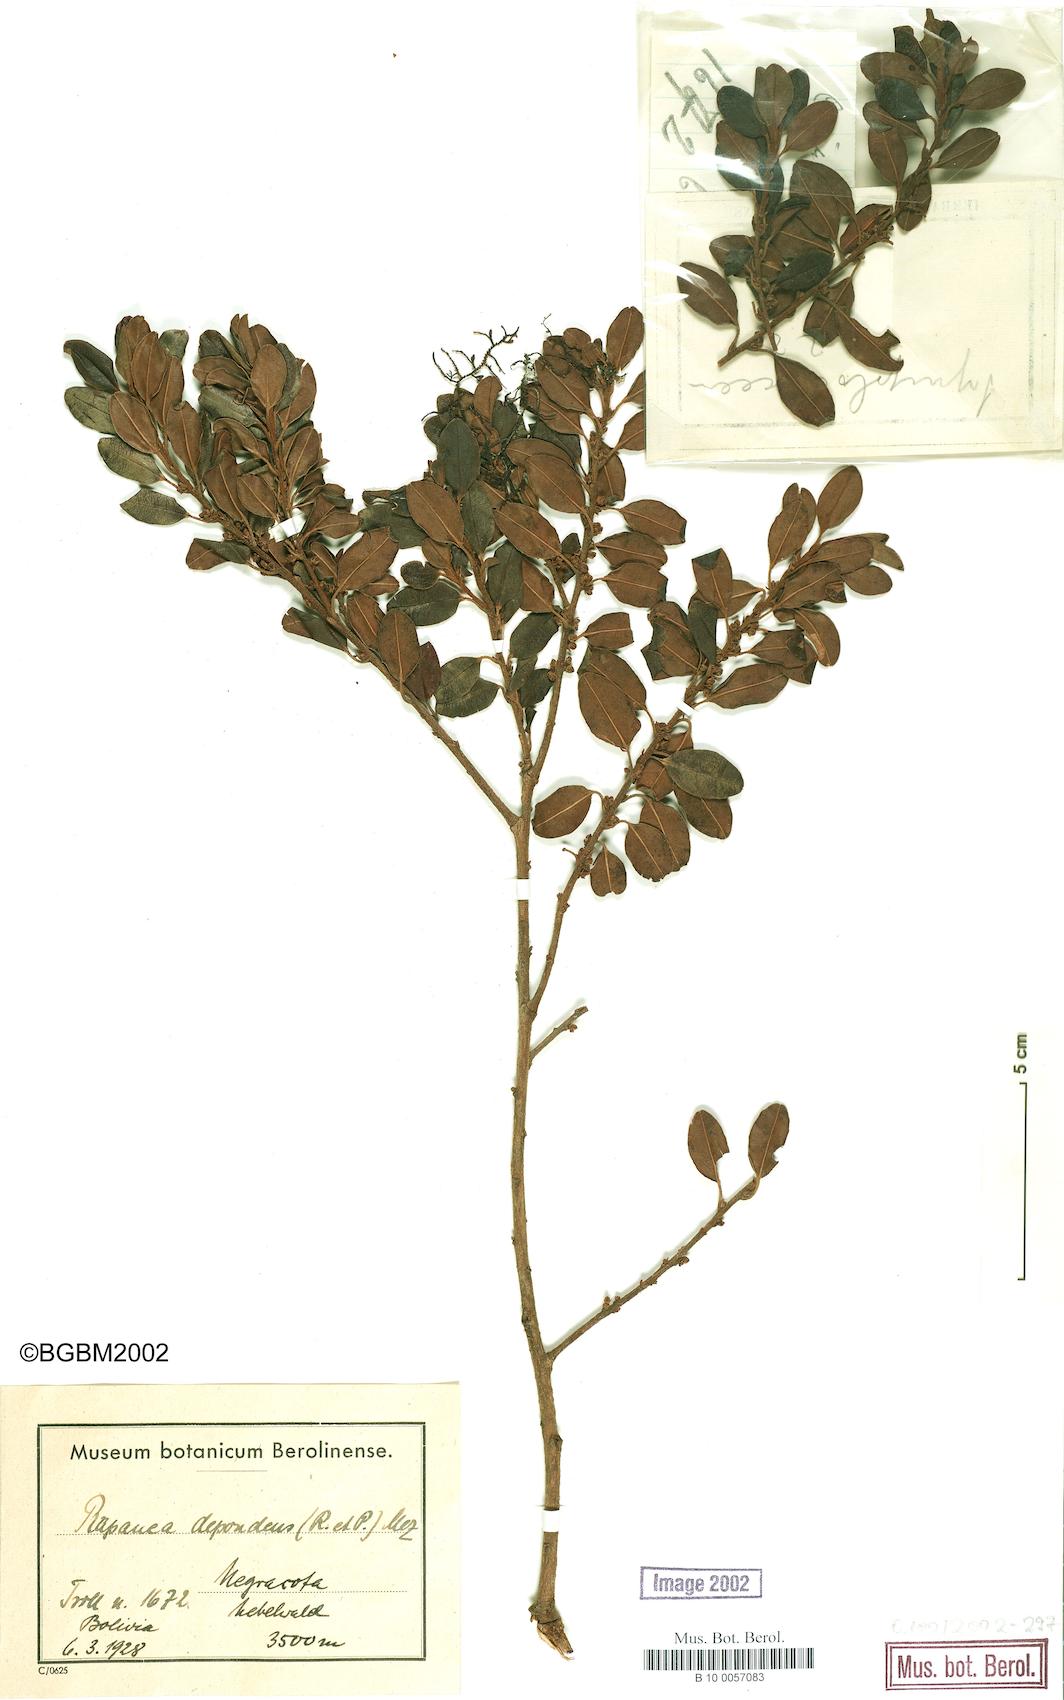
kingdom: Plantae
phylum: Tracheophyta
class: Magnoliopsida
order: Ericales
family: Primulaceae
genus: Myrsine
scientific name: Myrsine dependens
